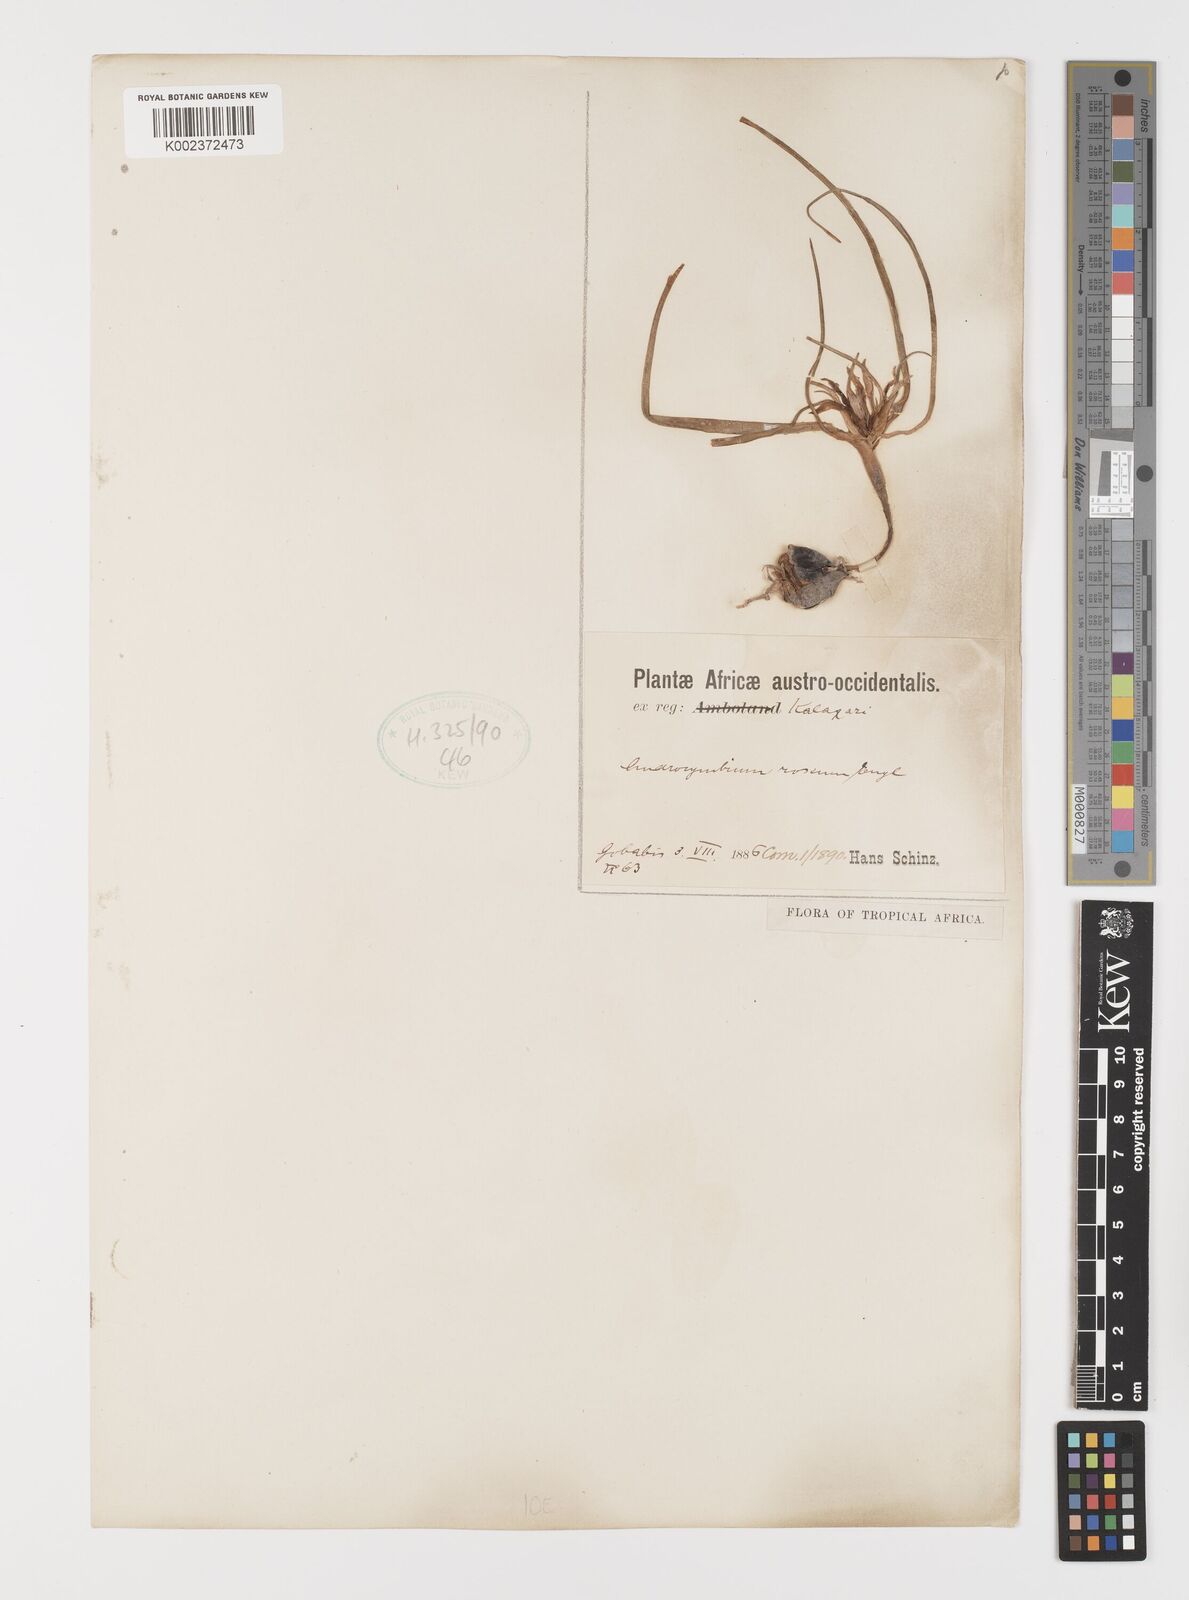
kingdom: Plantae
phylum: Tracheophyta
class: Liliopsida
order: Liliales
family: Colchicaceae
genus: Colchicum
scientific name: Colchicum roseum
